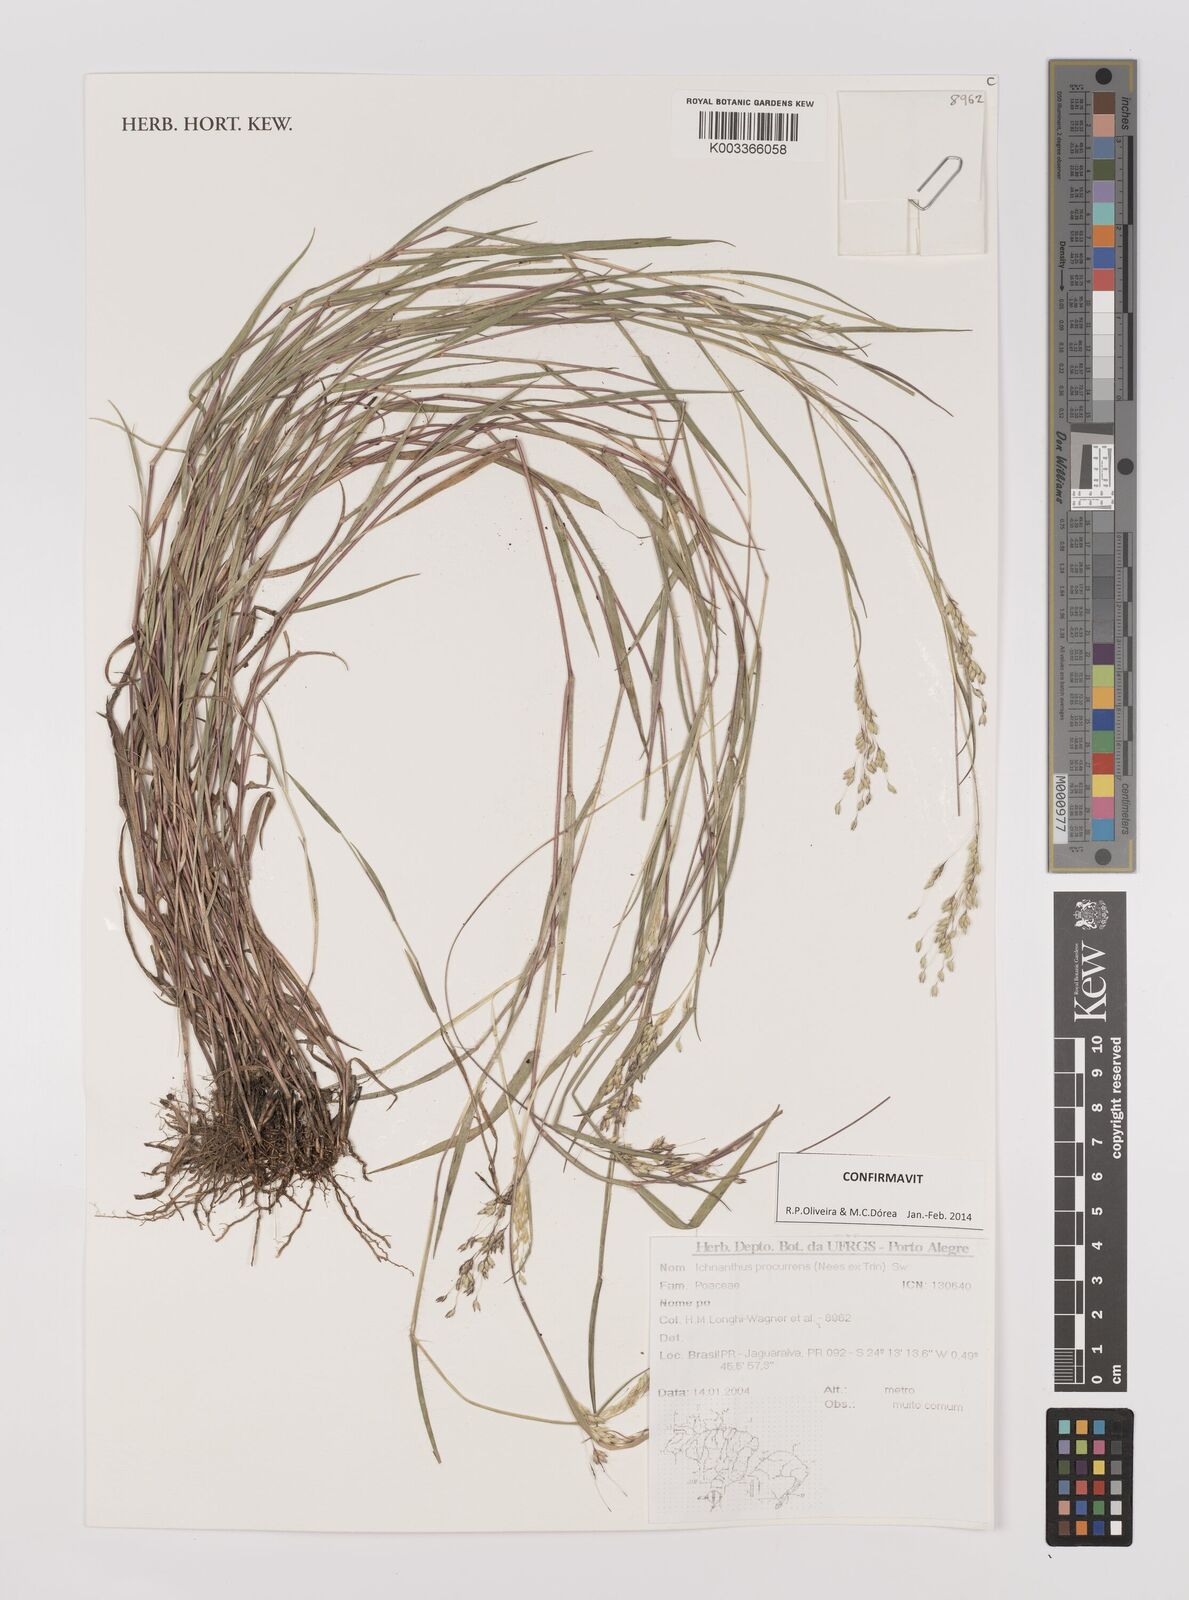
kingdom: Plantae
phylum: Tracheophyta
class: Liliopsida
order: Poales
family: Poaceae
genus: Oedochloa
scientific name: Oedochloa procurrens
